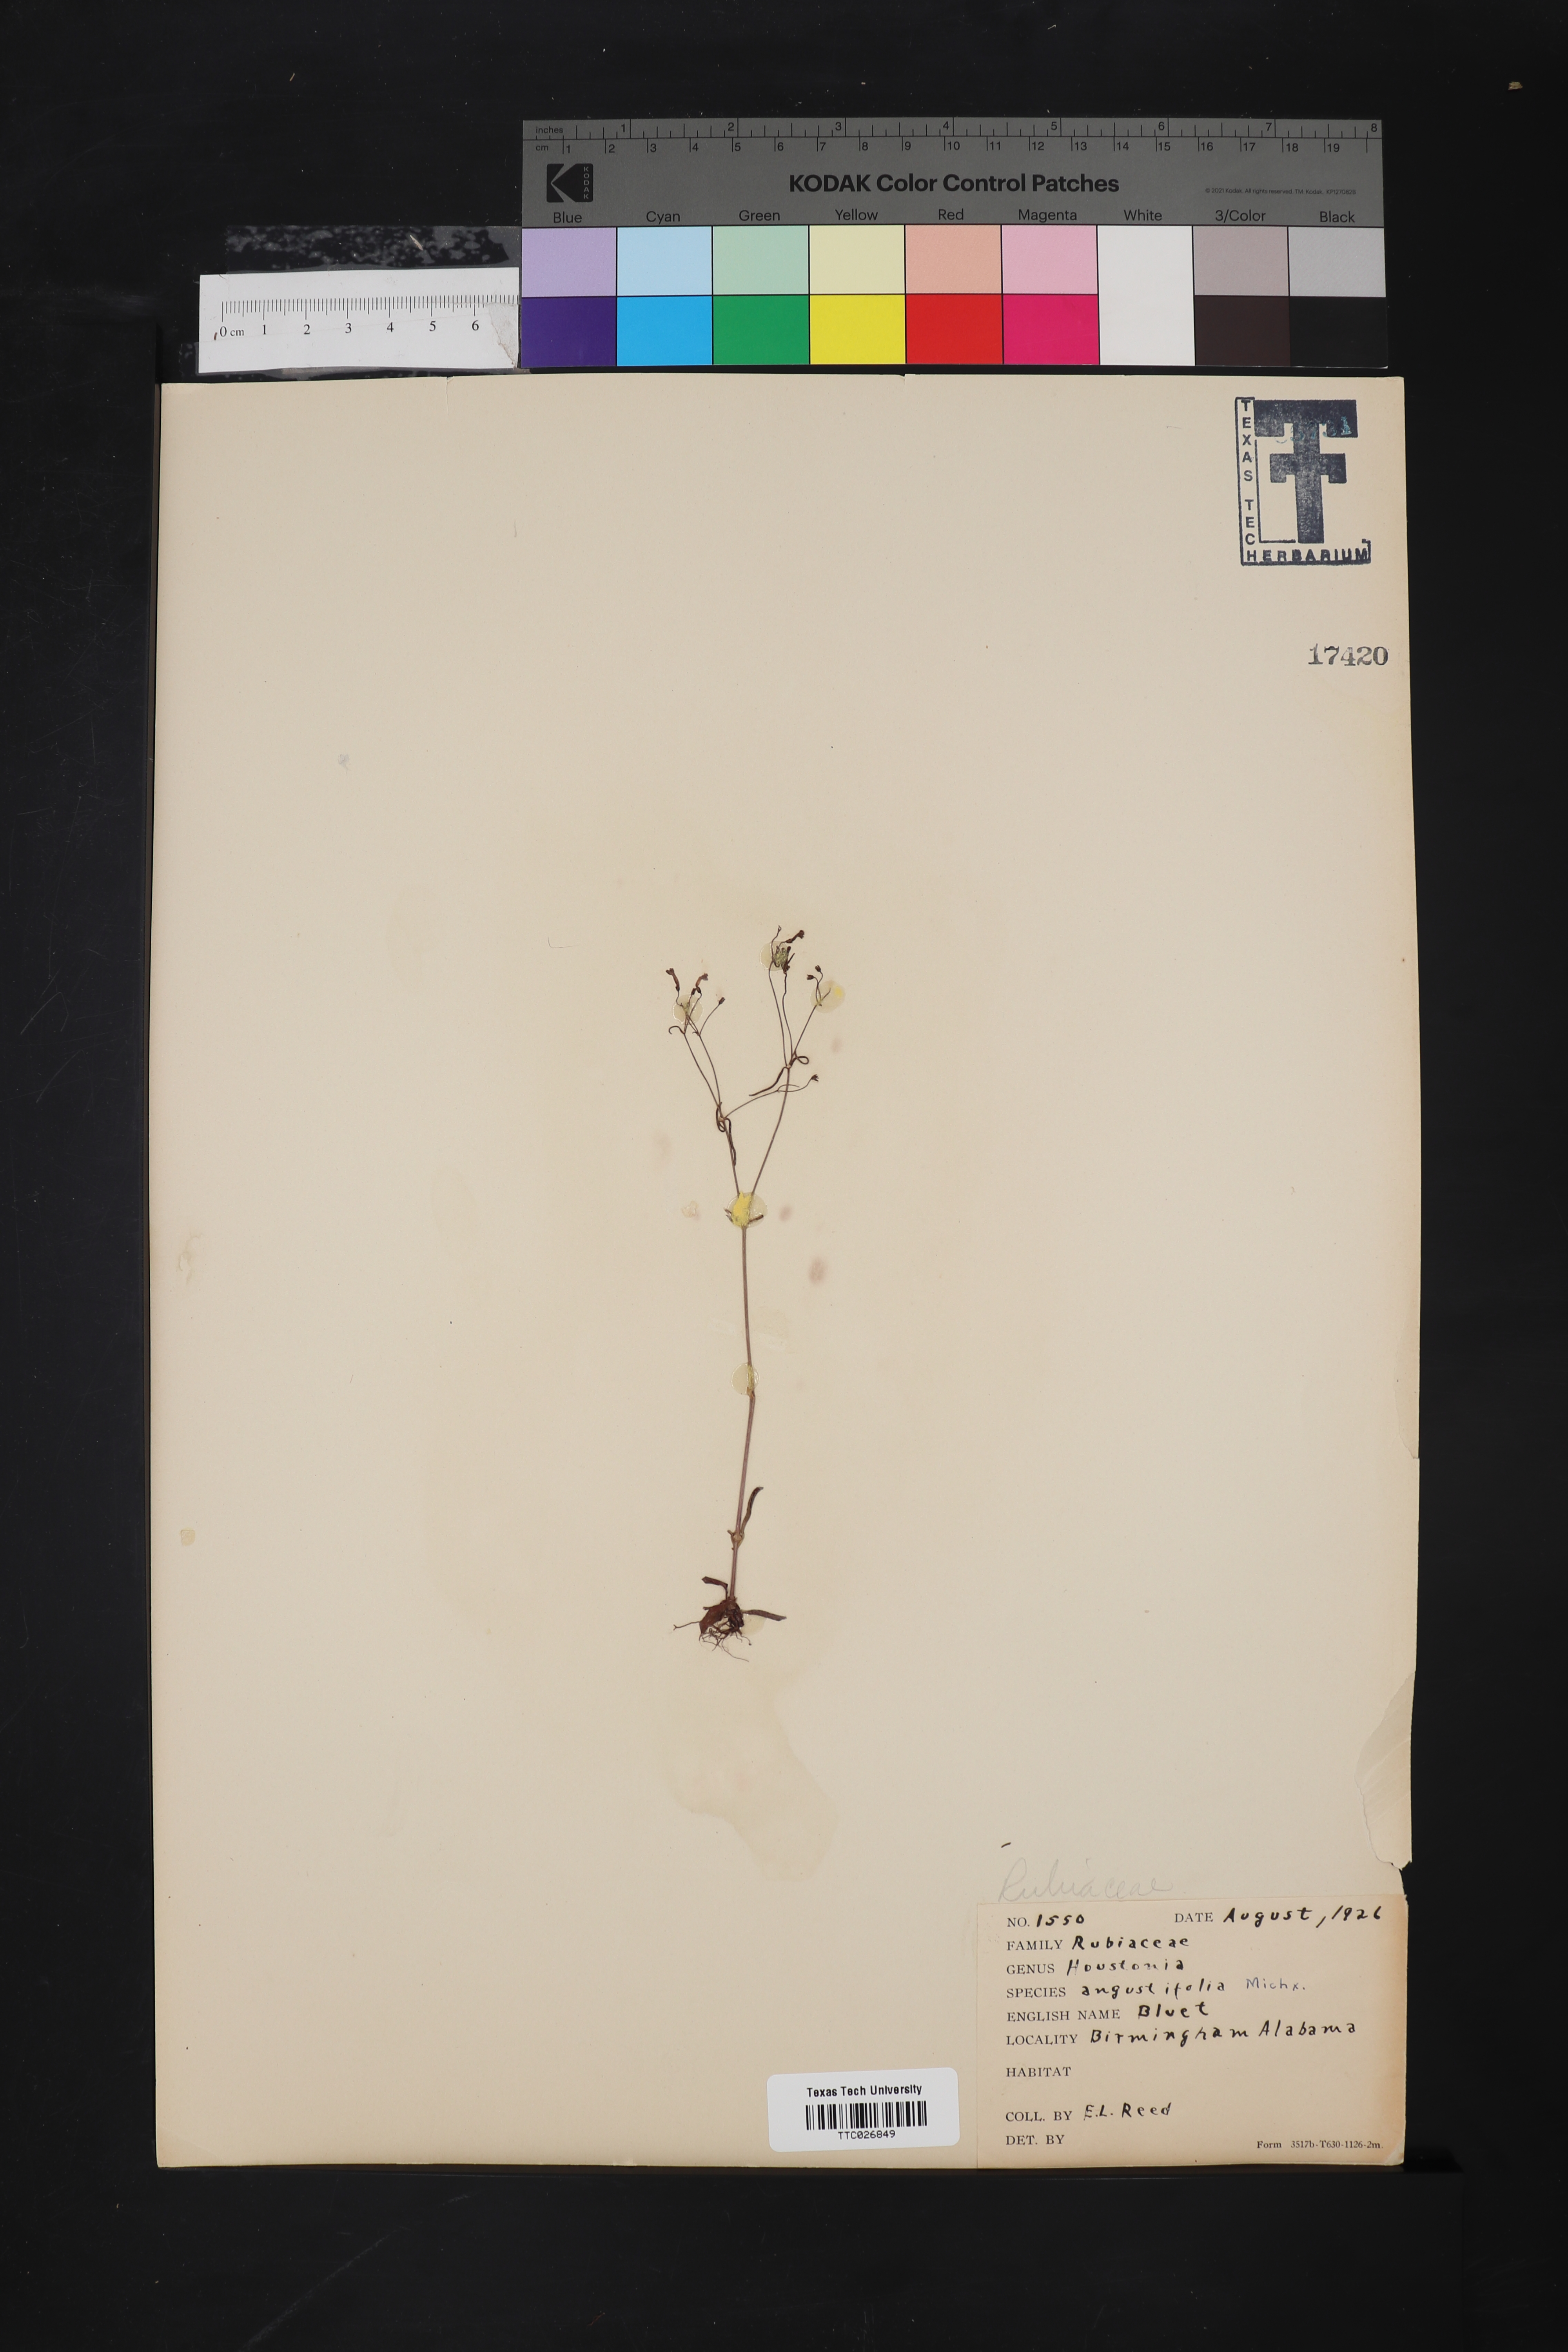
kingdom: Plantae
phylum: Tracheophyta
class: Magnoliopsida
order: Gentianales
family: Rubiaceae
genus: Stenaria
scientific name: Stenaria nigricans
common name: Diamondflowers
